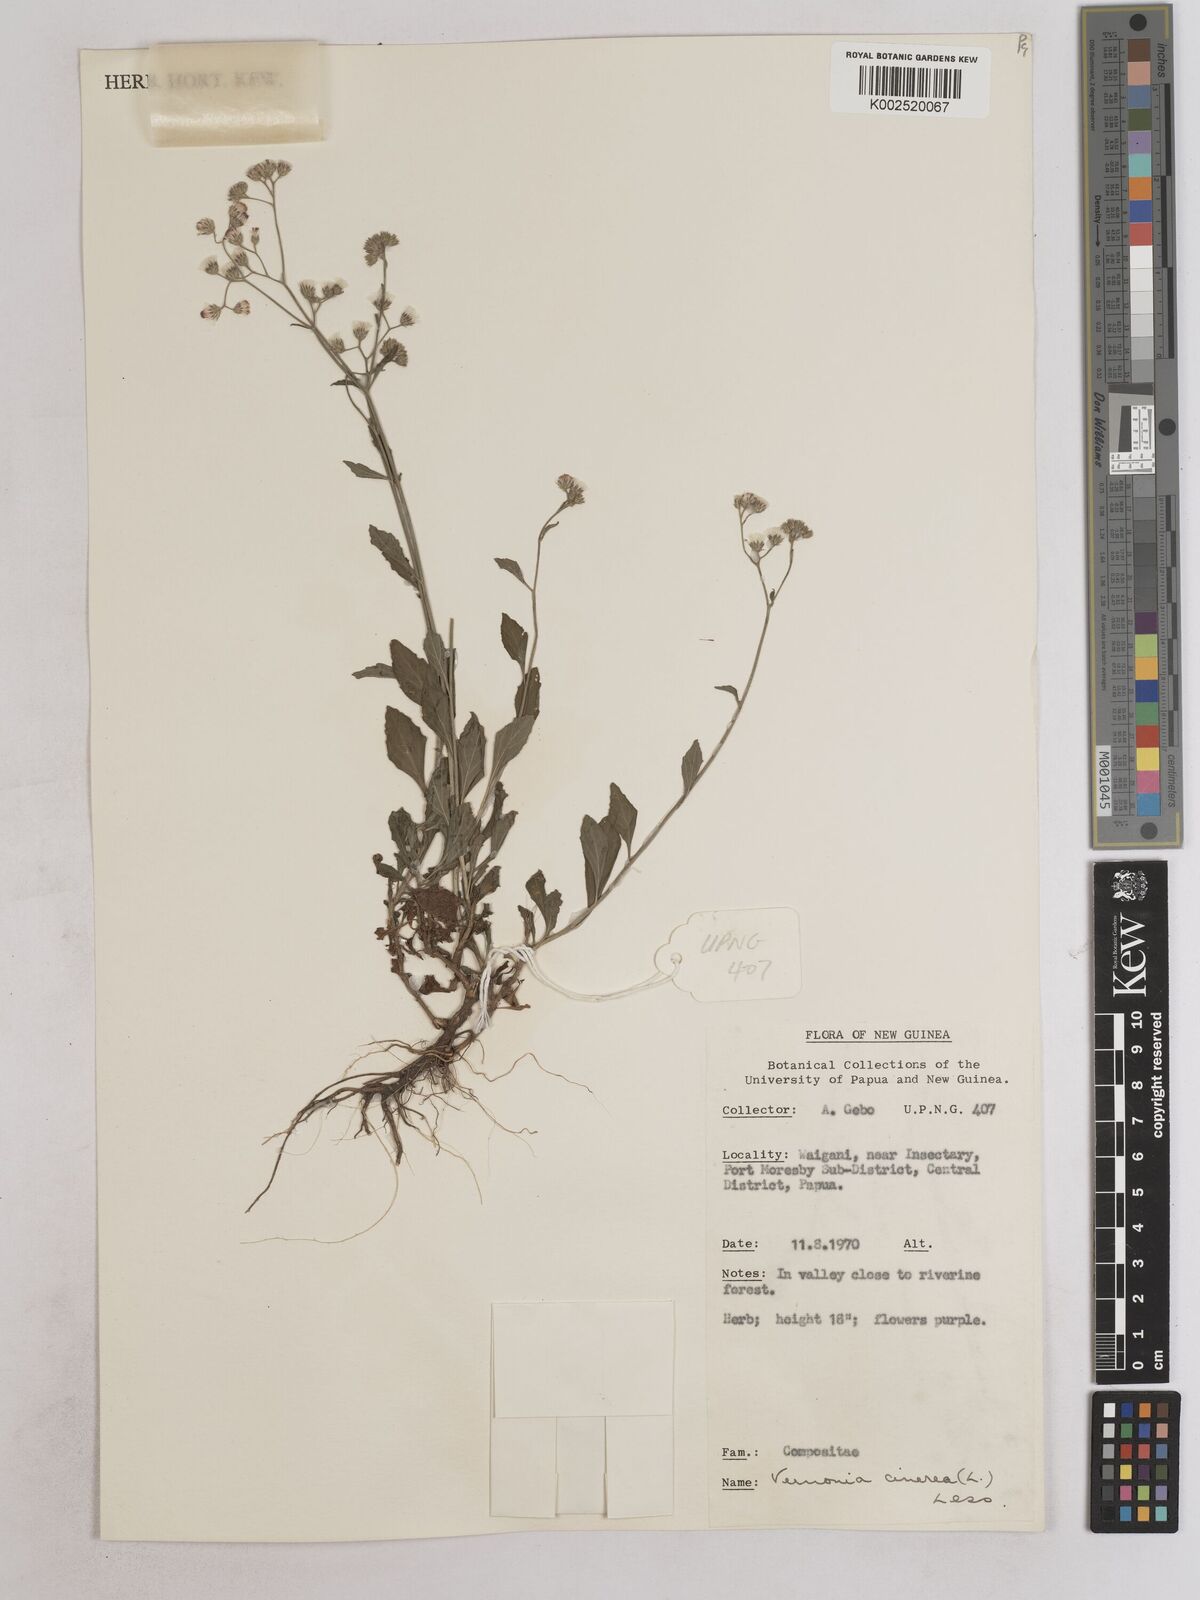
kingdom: Plantae
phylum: Tracheophyta
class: Magnoliopsida
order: Asterales
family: Asteraceae
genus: Cyanthillium
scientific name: Cyanthillium cinereum
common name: Little ironweed
